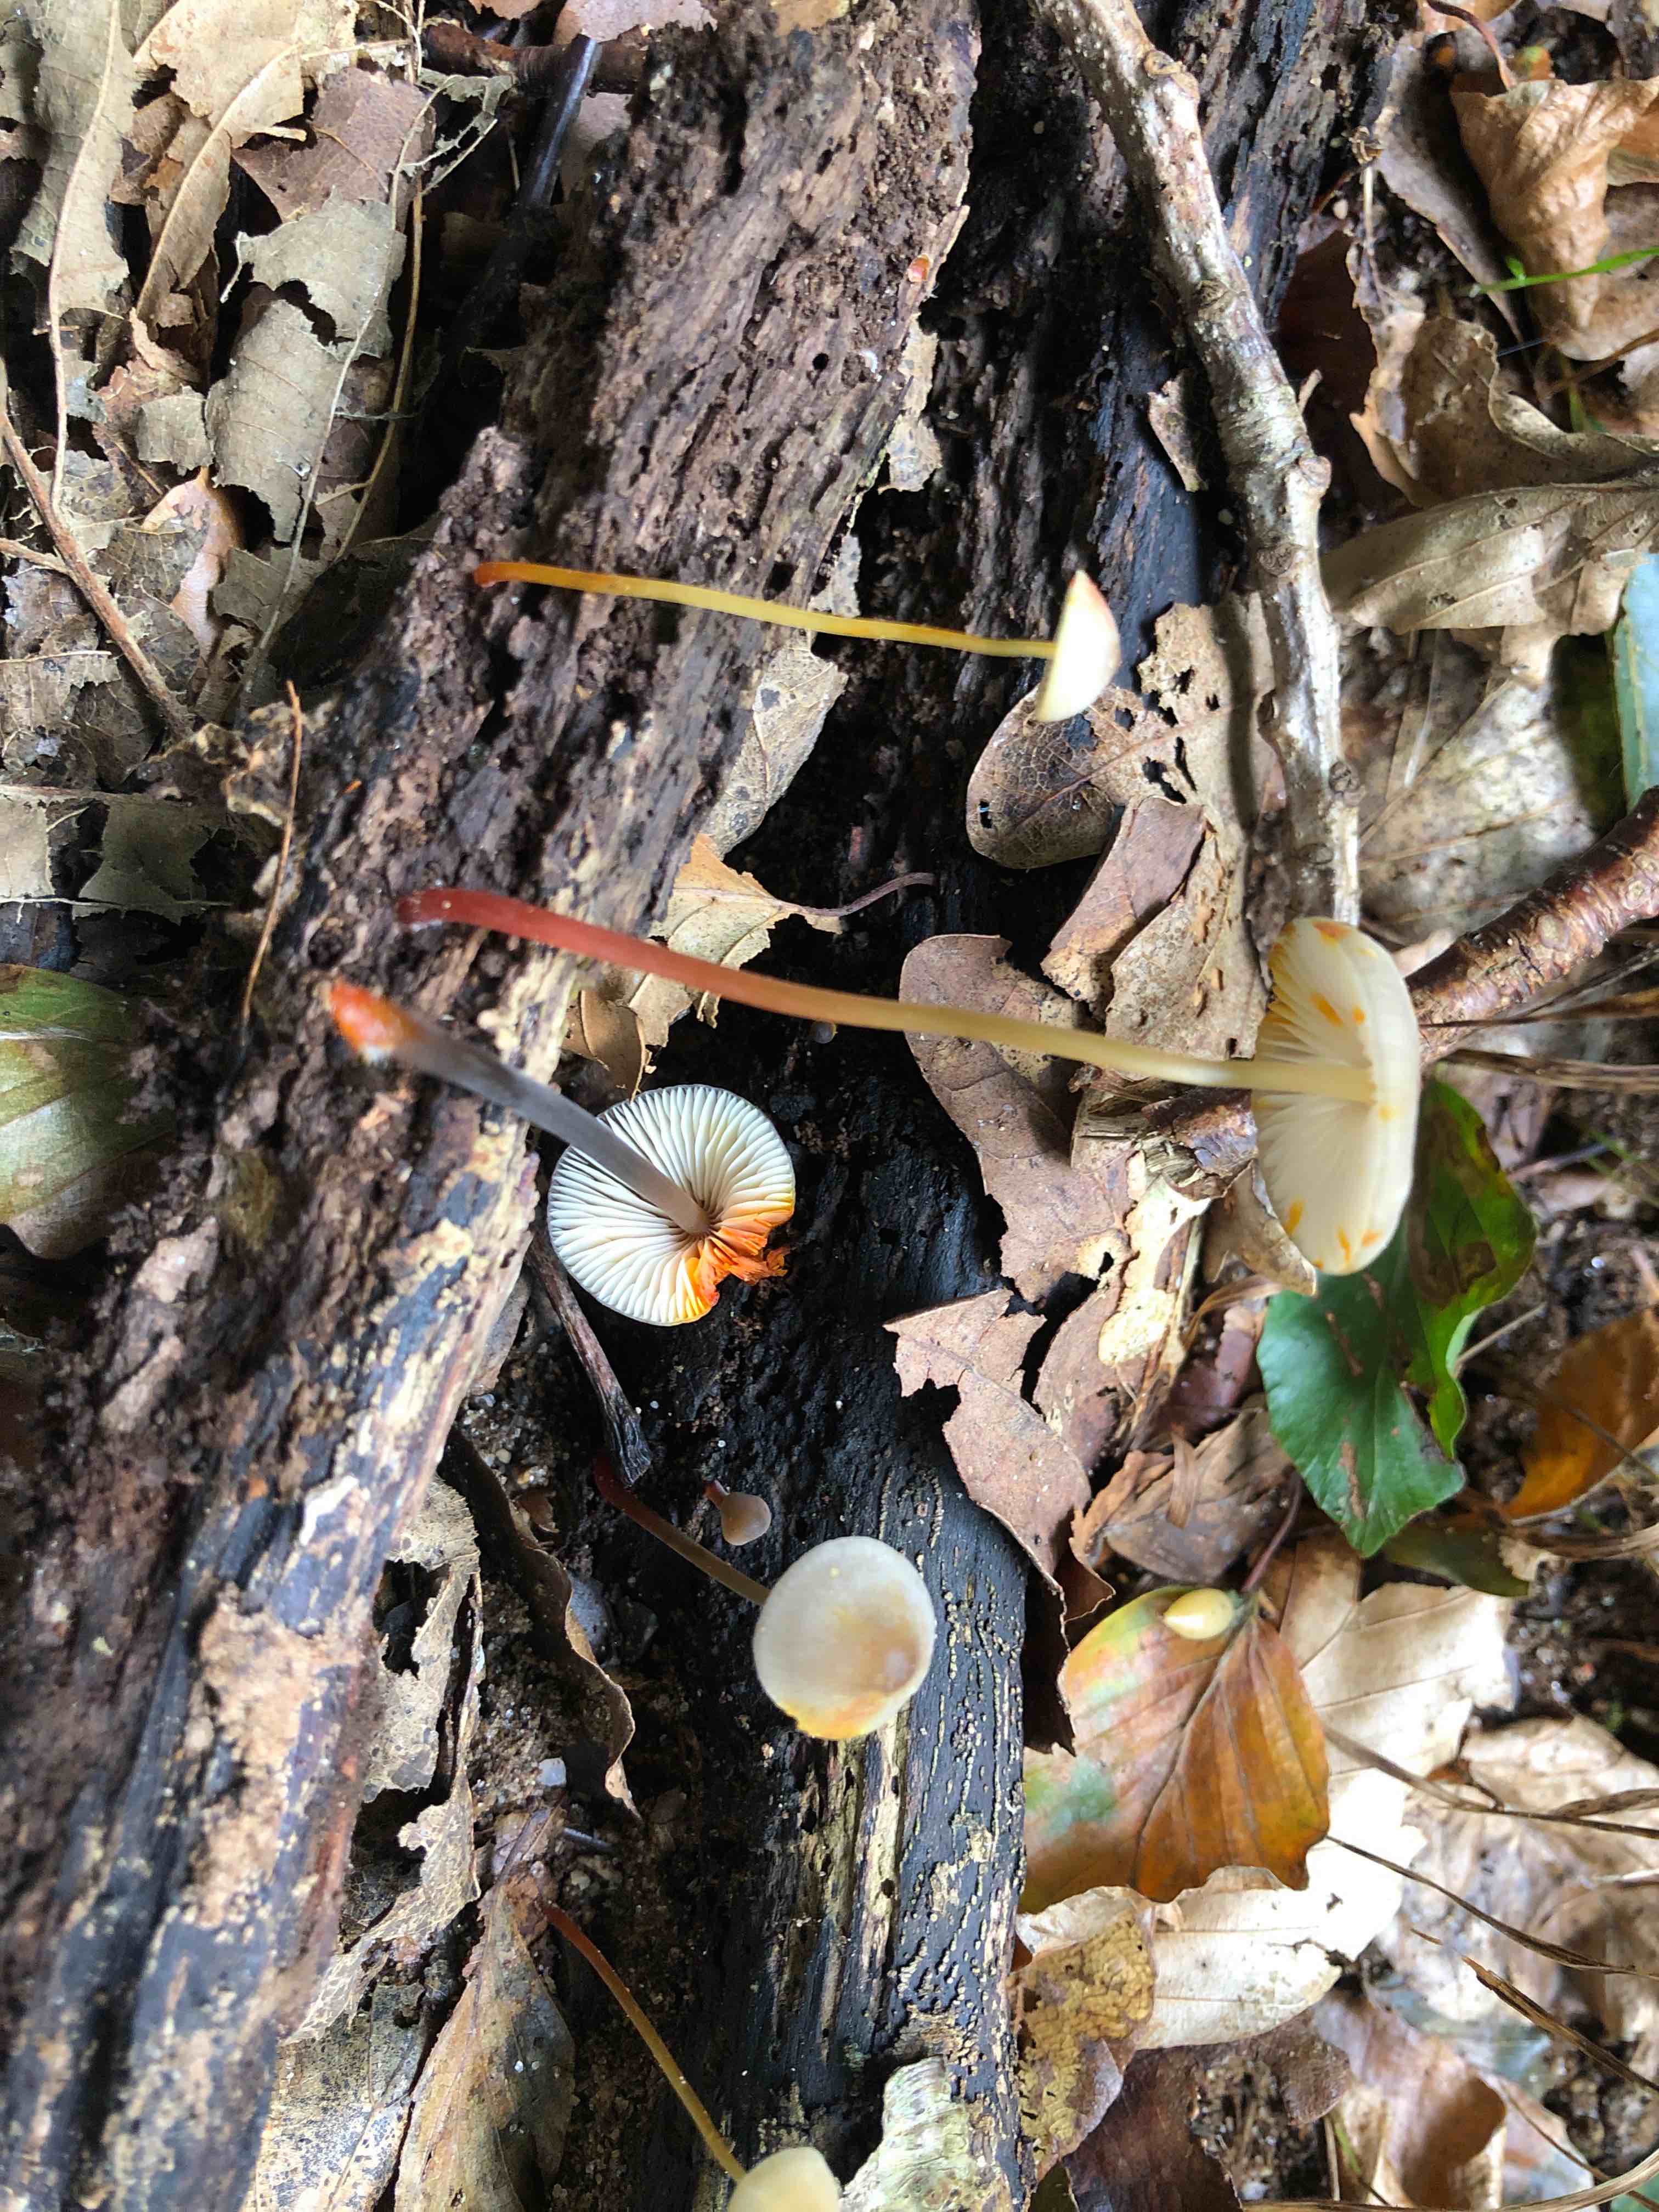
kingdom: Fungi
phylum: Basidiomycota
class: Agaricomycetes
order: Agaricales
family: Mycenaceae
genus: Mycena
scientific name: Mycena crocata
